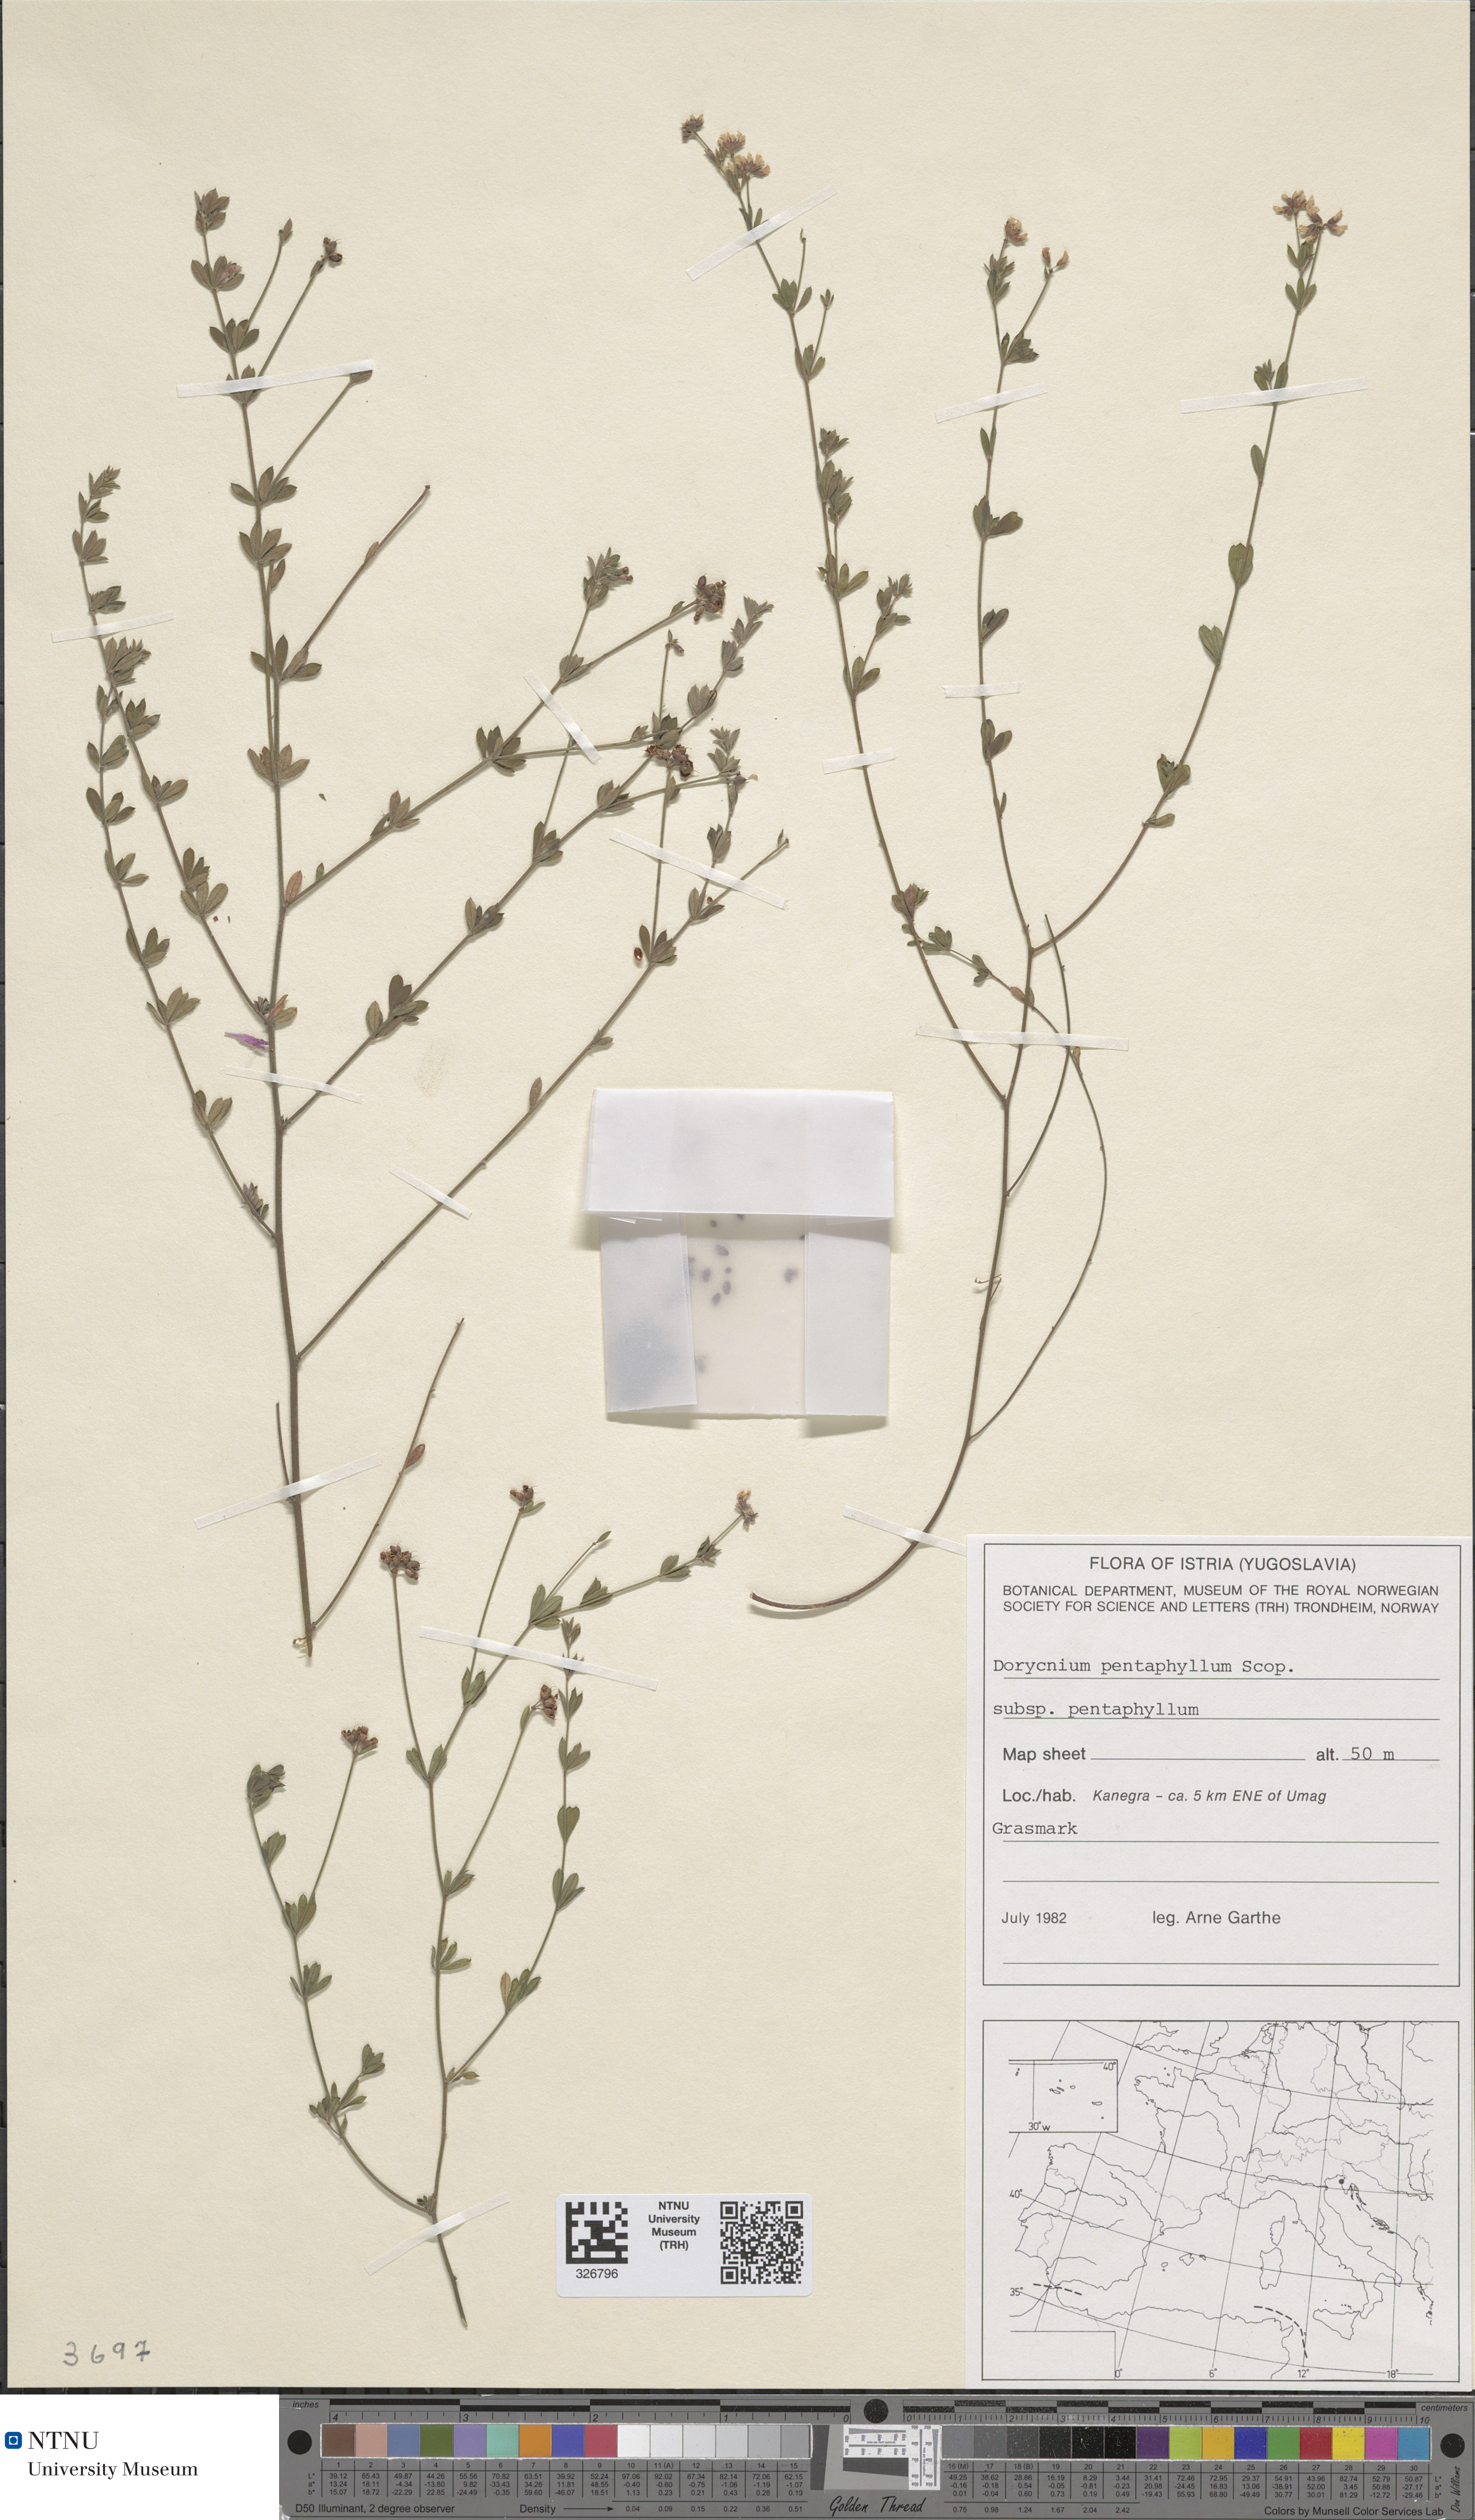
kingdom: Plantae
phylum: Tracheophyta
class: Magnoliopsida
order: Fabales
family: Fabaceae
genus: Lotus
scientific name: Lotus dorycnium
